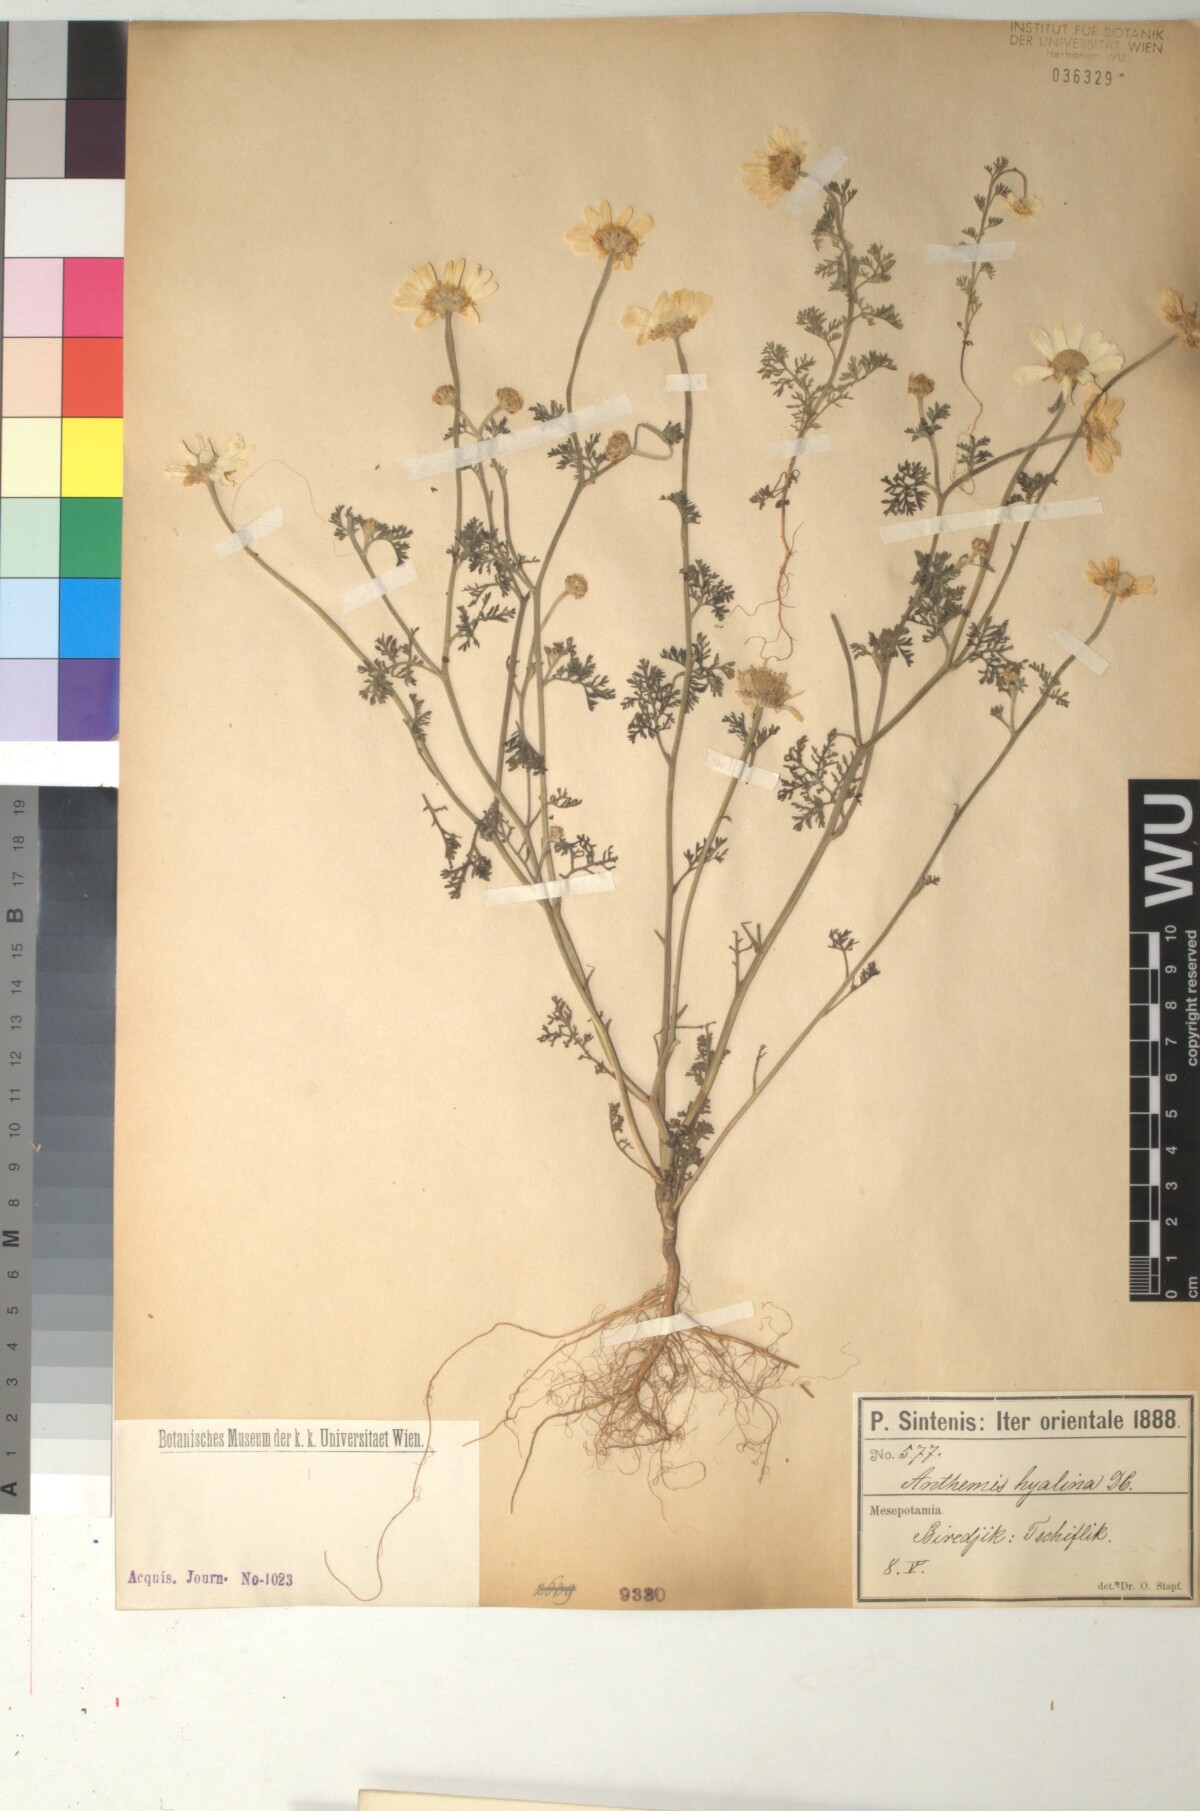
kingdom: Plantae
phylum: Tracheophyta
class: Magnoliopsida
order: Asterales
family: Asteraceae
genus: Anthemis
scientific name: Anthemis hyalina
